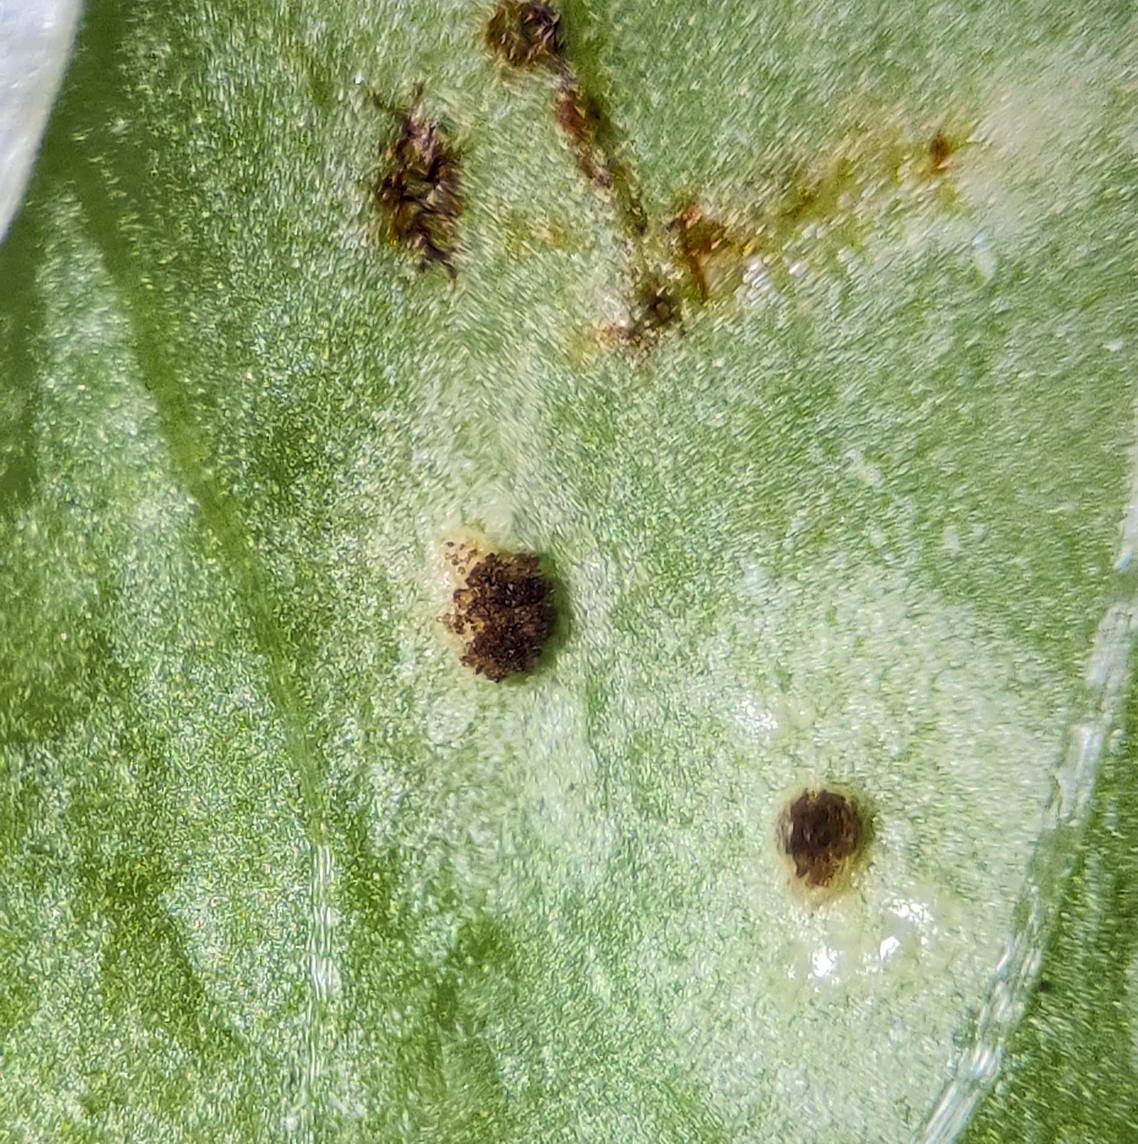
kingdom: Fungi
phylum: Basidiomycota
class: Pucciniomycetes
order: Pucciniales
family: Pucciniaceae
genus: Puccinia
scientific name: Puccinia komarovii
